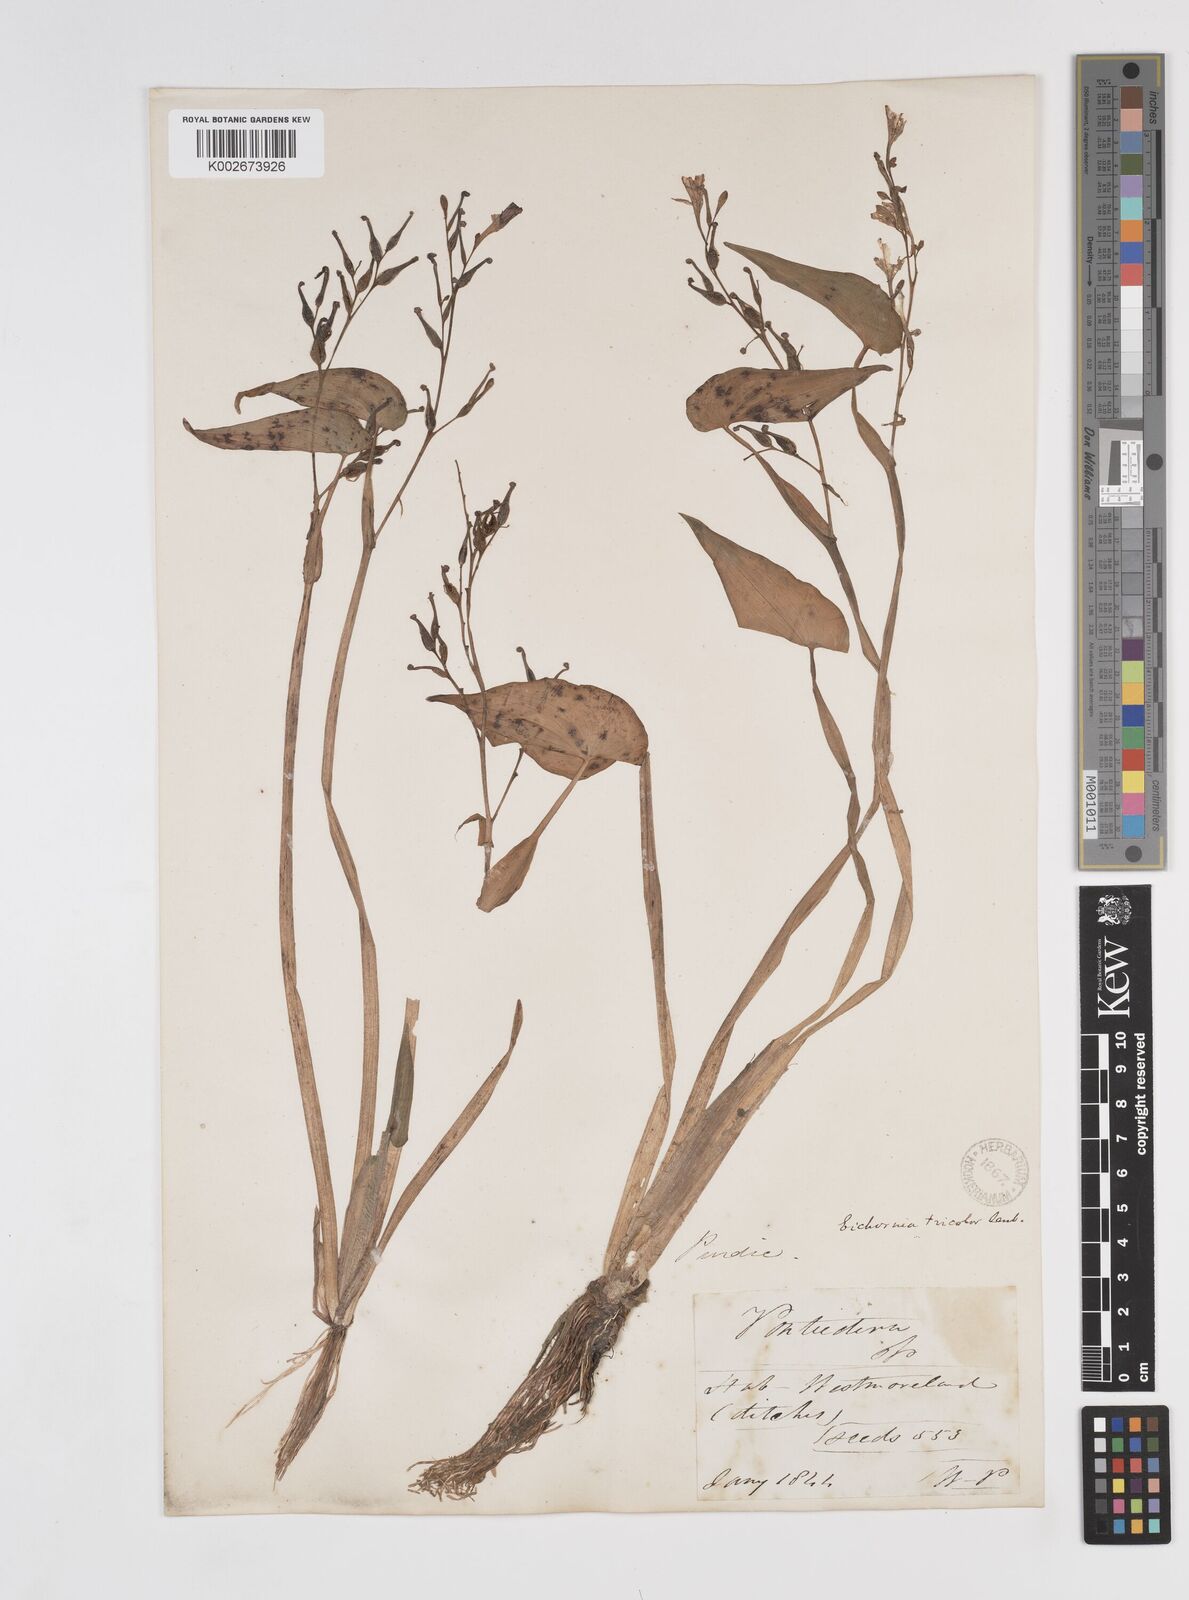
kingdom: Plantae
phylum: Tracheophyta
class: Liliopsida
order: Commelinales
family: Pontederiaceae
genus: Pontederia
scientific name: Pontederia paniculata
